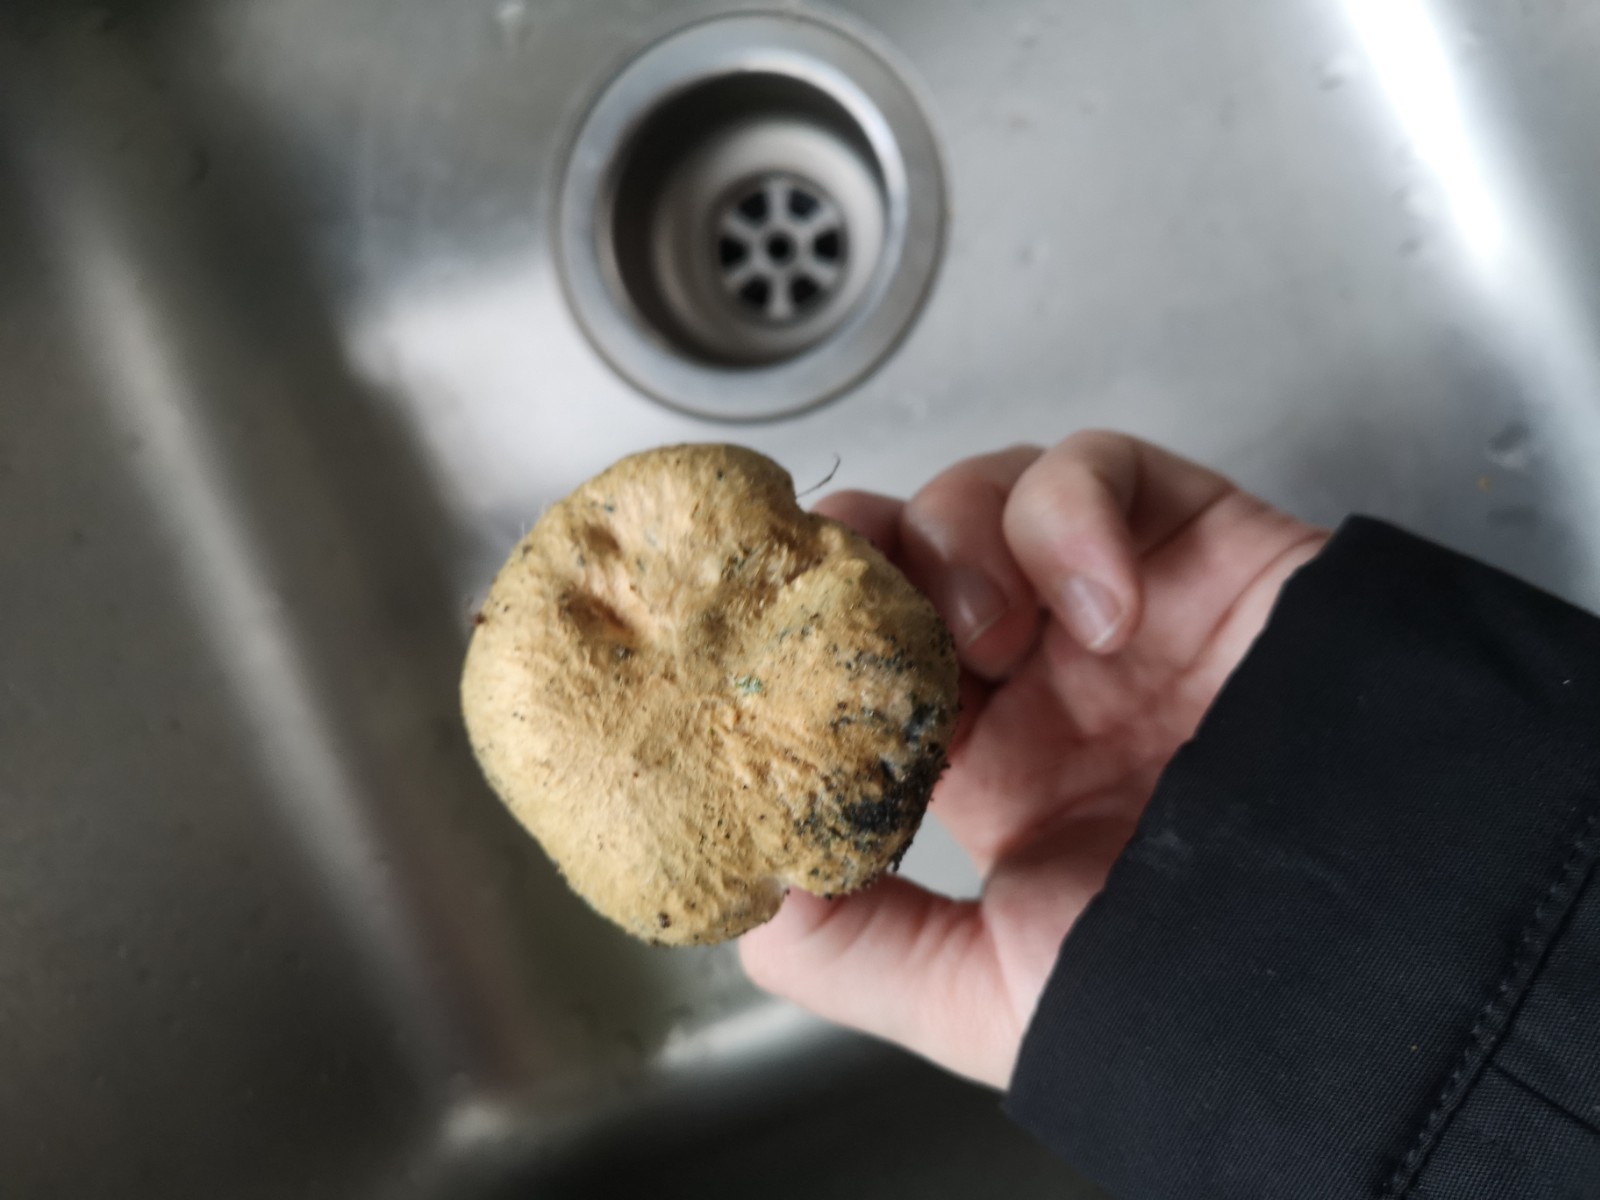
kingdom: Fungi
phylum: Basidiomycota
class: Agaricomycetes
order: Boletales
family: Gyroporaceae
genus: Gyroporus
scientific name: Gyroporus cyanescens
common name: blånende kammerrørhat
